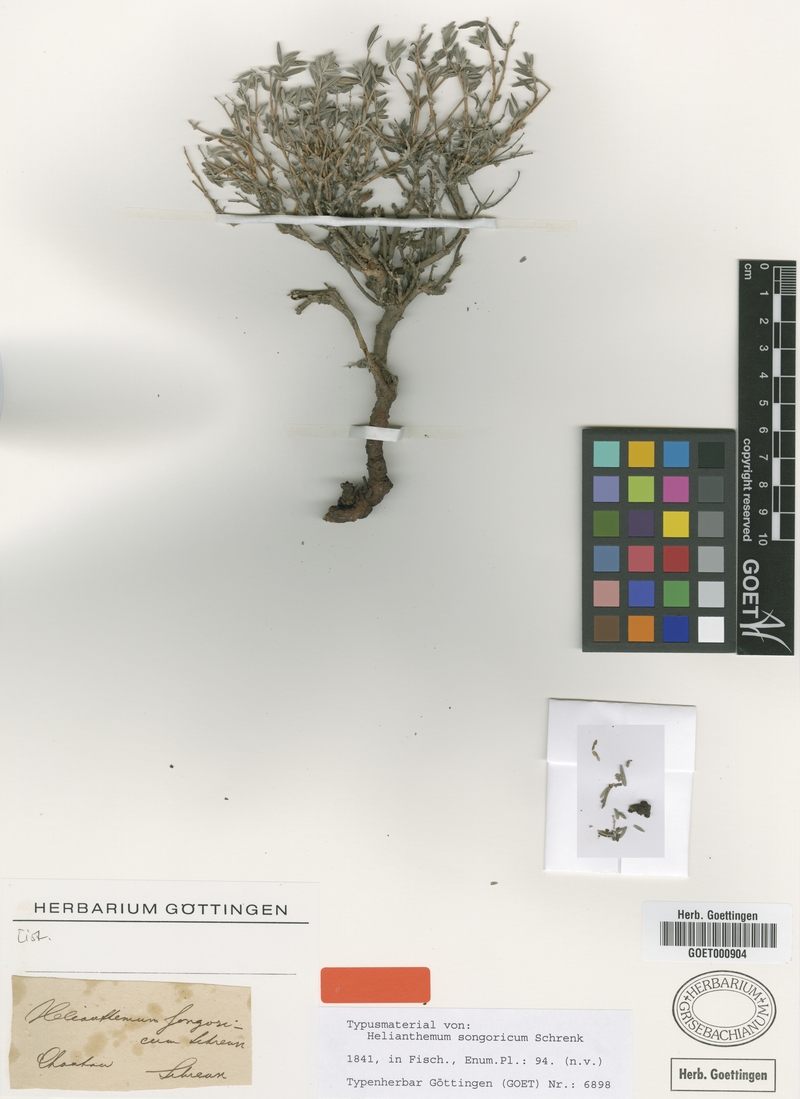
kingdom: Plantae
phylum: Tracheophyta
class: Magnoliopsida
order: Malvales
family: Cistaceae
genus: Helianthemum
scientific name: Helianthemum songaricum
